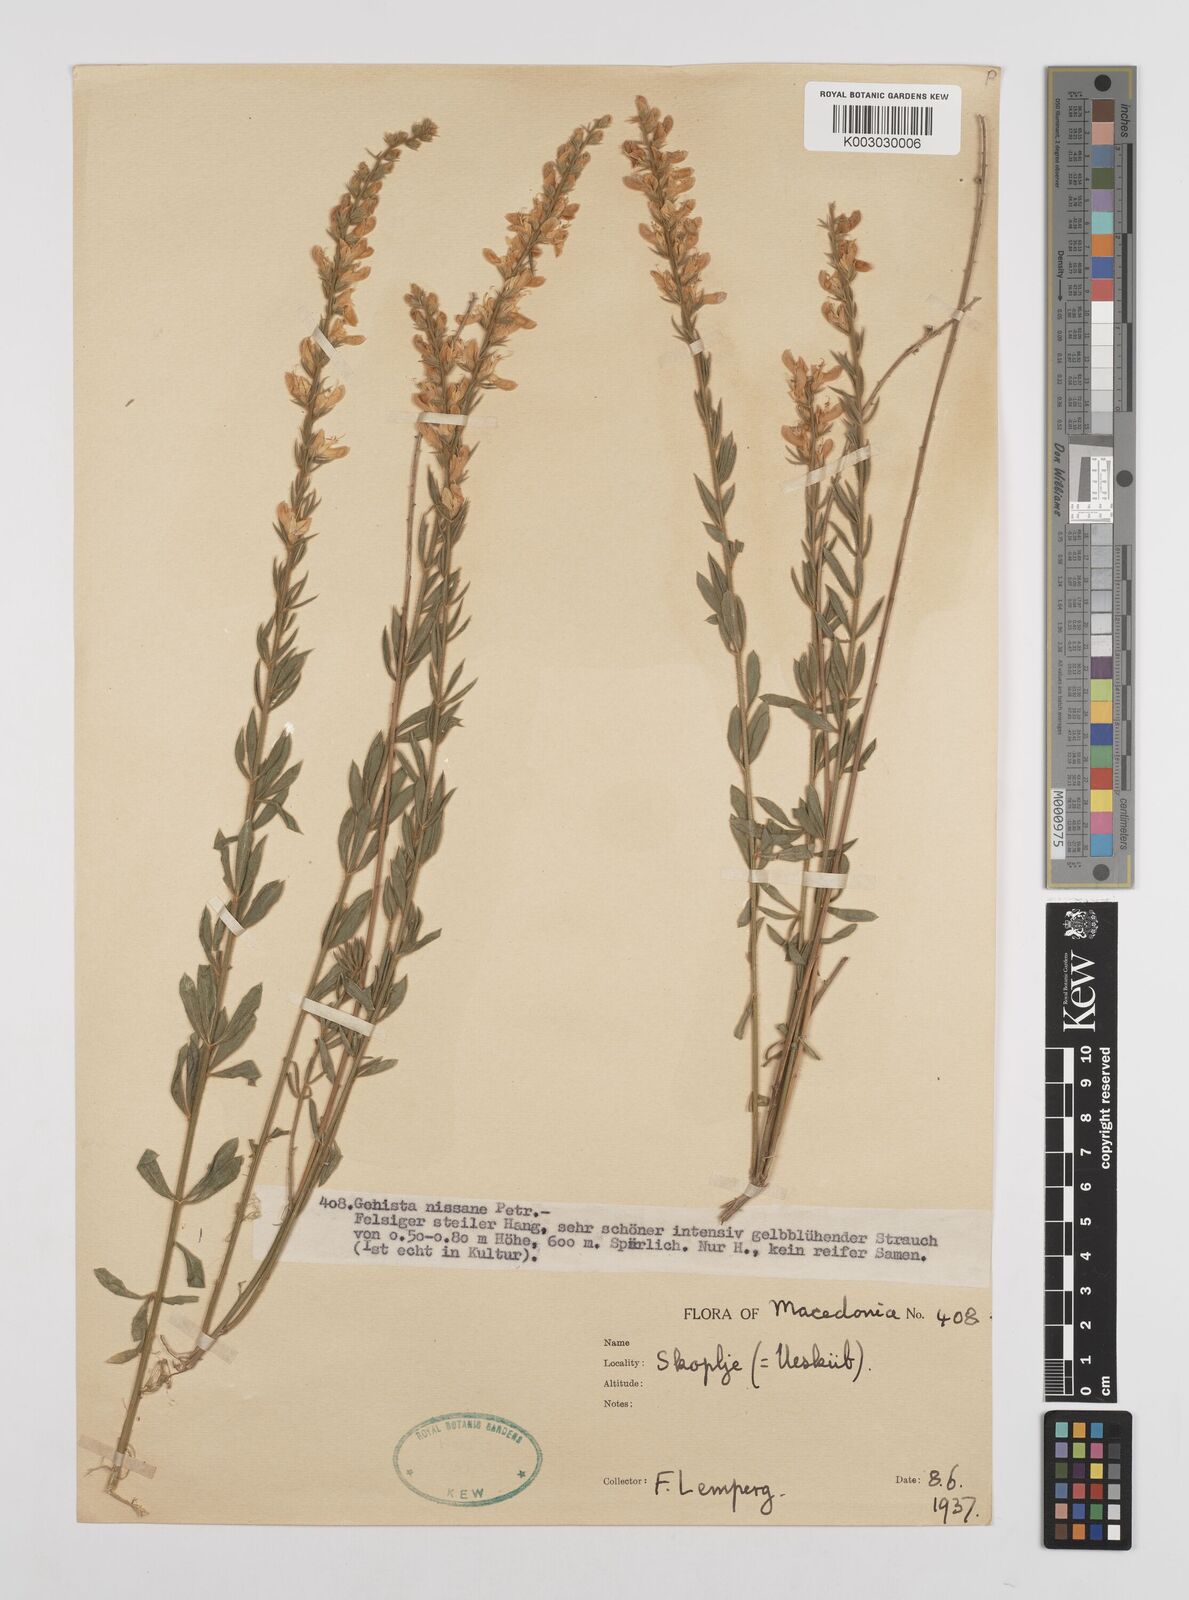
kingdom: Plantae
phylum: Tracheophyta
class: Magnoliopsida
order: Fabales
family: Fabaceae
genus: Genista
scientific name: Genista nissana
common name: Macedonian broom
